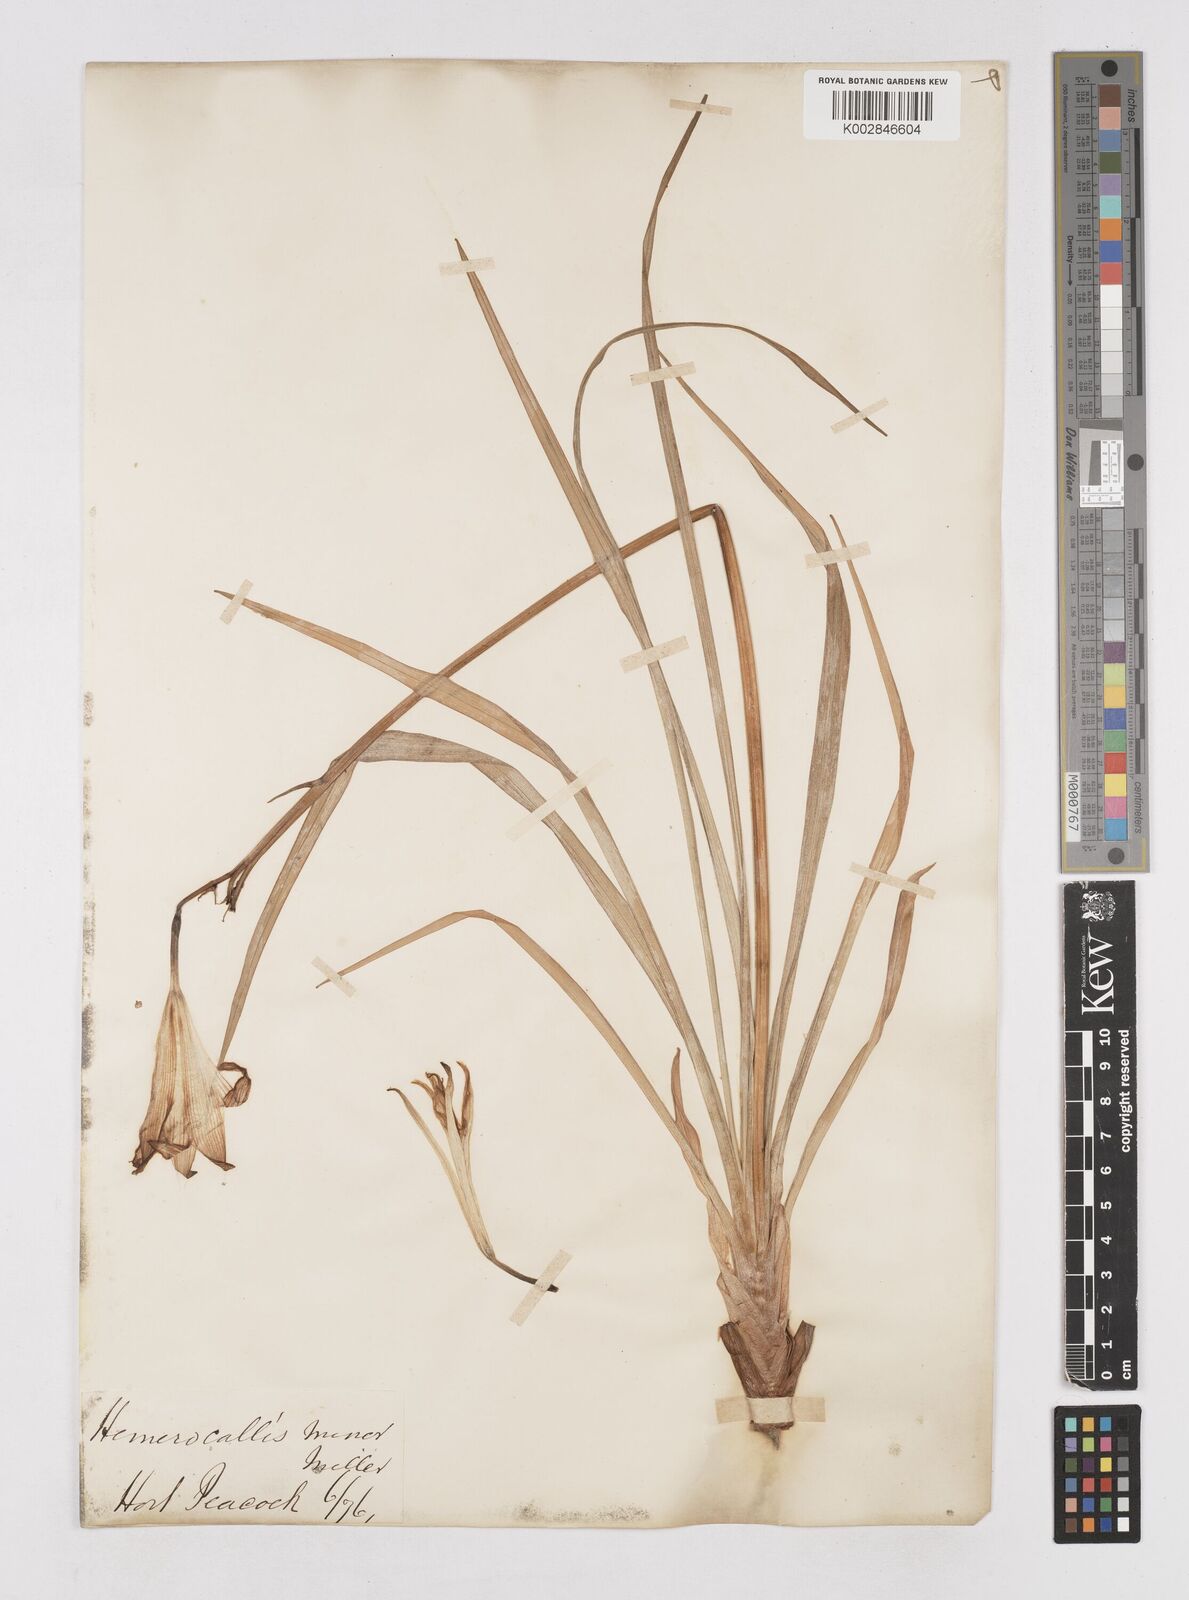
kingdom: Plantae
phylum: Tracheophyta
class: Liliopsida
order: Asparagales
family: Asphodelaceae
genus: Hemerocallis
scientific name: Hemerocallis minor
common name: Small daylily
